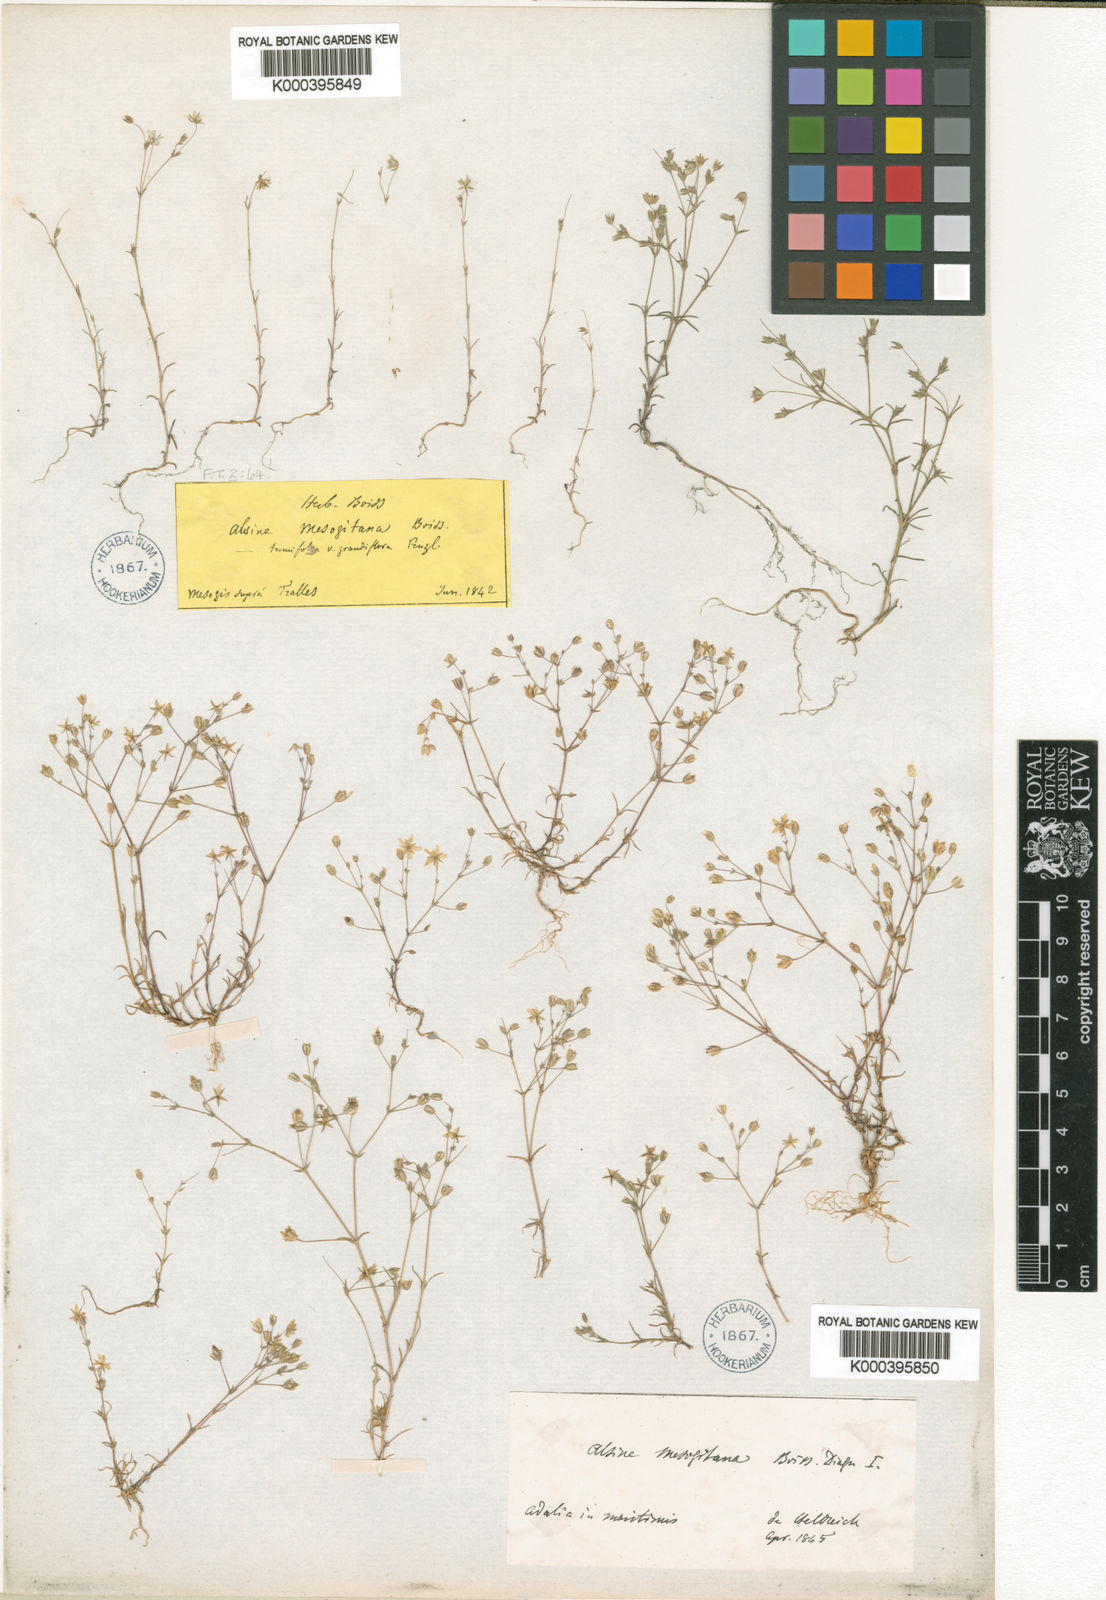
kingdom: Plantae
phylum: Tracheophyta
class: Magnoliopsida
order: Caryophyllales
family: Caryophyllaceae
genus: Sabulina
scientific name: Sabulina mesogitana
